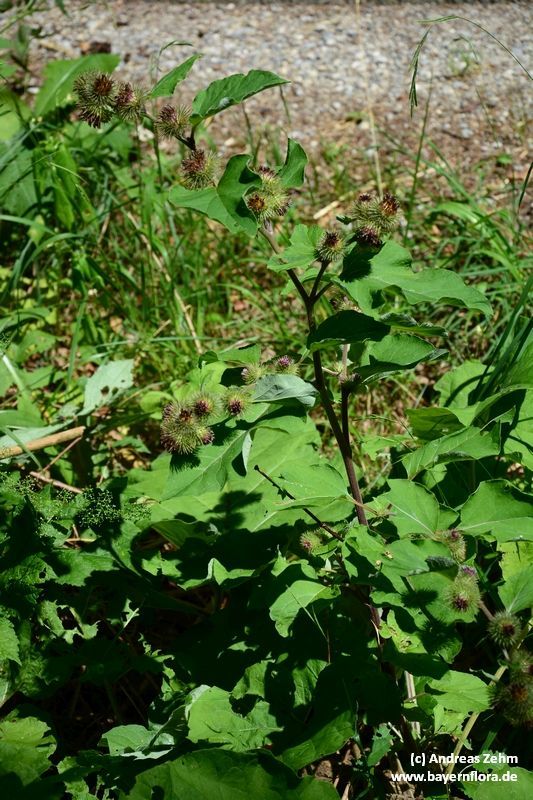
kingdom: Plantae
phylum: Tracheophyta
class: Magnoliopsida
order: Asterales
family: Asteraceae
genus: Arctium
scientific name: Arctium nemorosum
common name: Wood burdock
